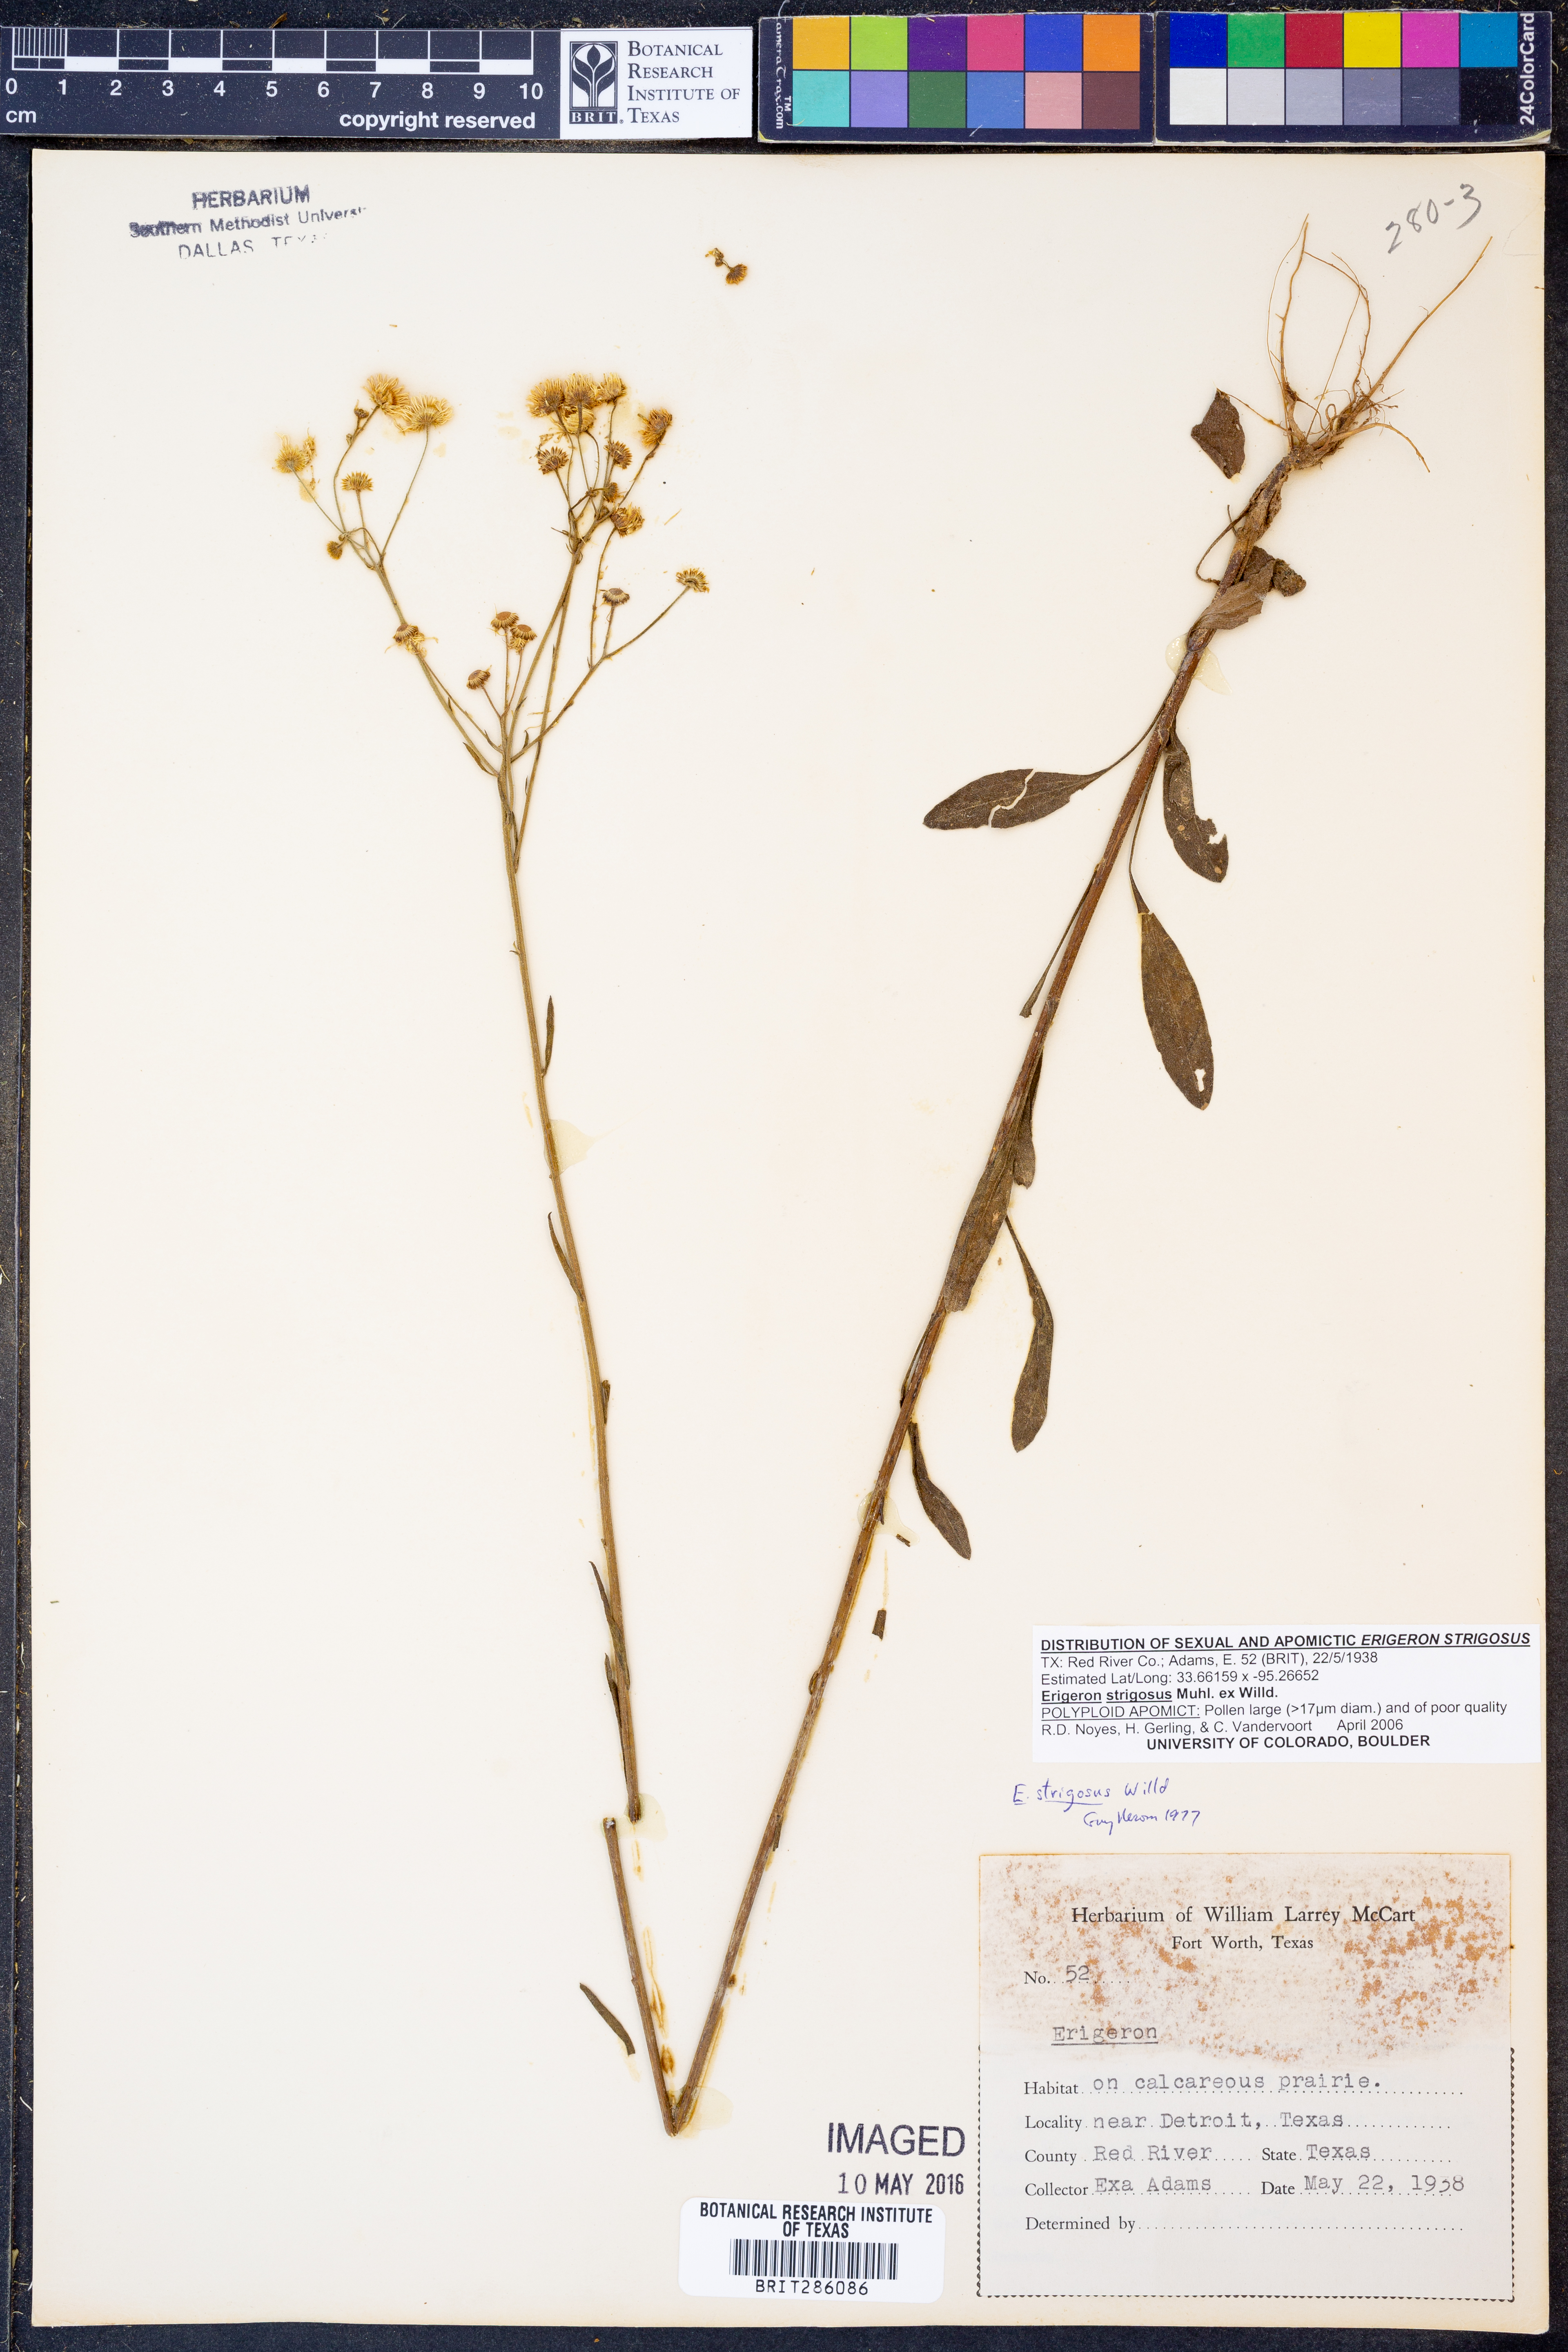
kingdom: Plantae
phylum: Tracheophyta
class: Magnoliopsida
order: Asterales
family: Asteraceae
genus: Erigeron
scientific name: Erigeron strigosus
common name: Common eastern fleabane
